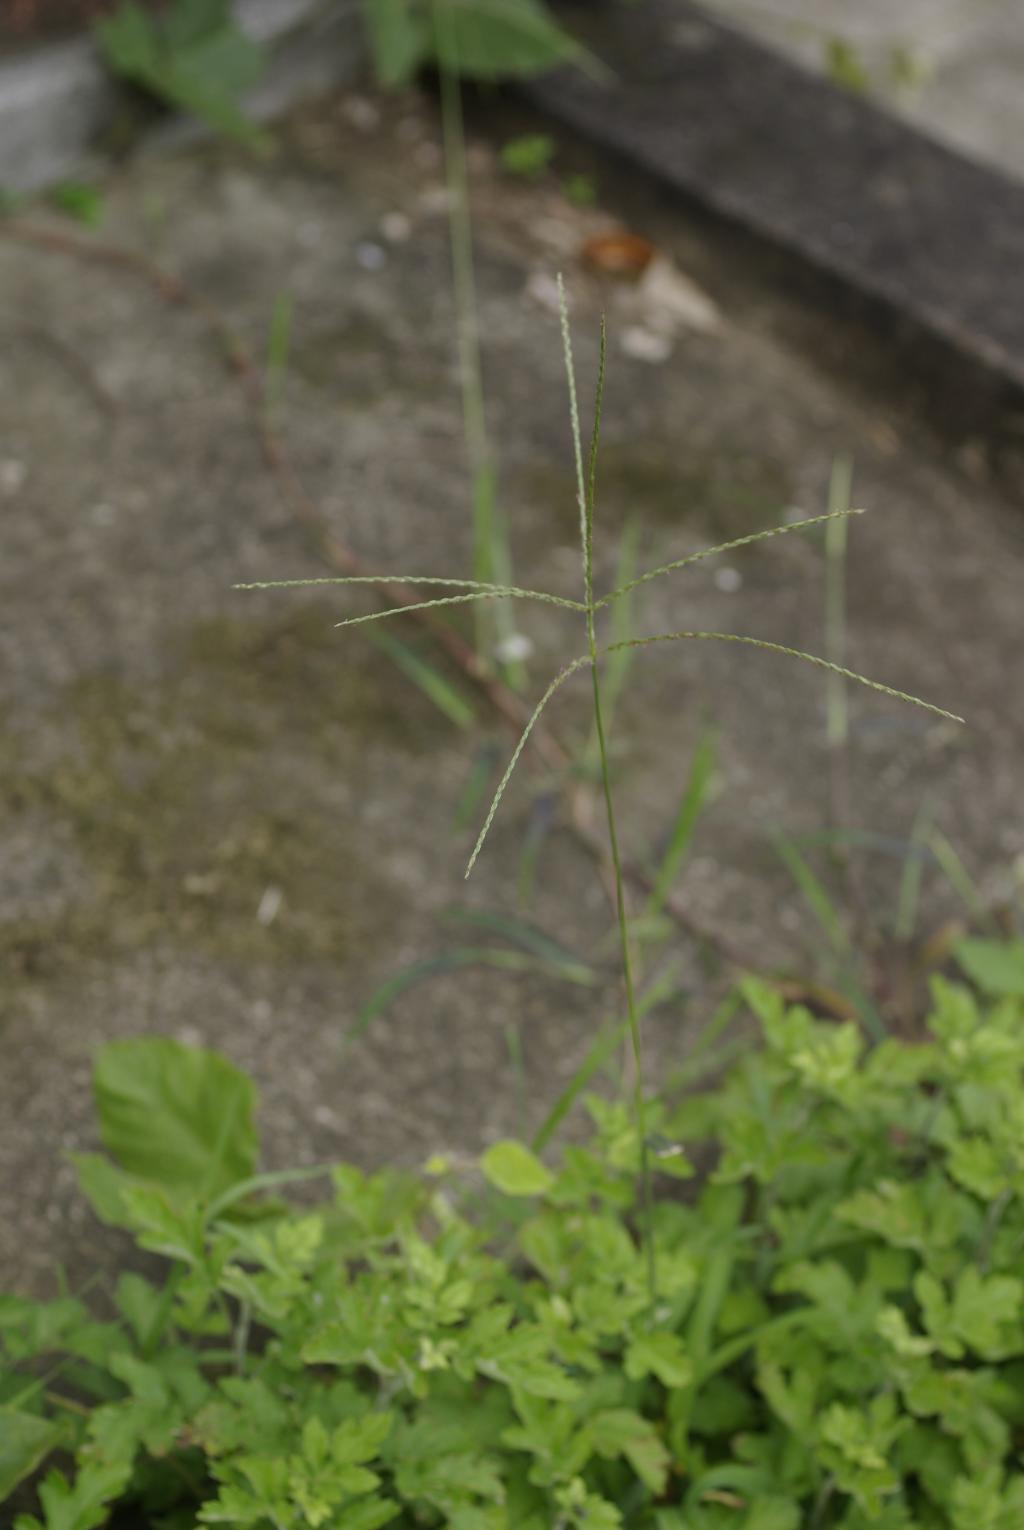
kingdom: Plantae
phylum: Tracheophyta
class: Liliopsida
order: Poales
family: Poaceae
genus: Digitaria
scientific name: Digitaria setigera
